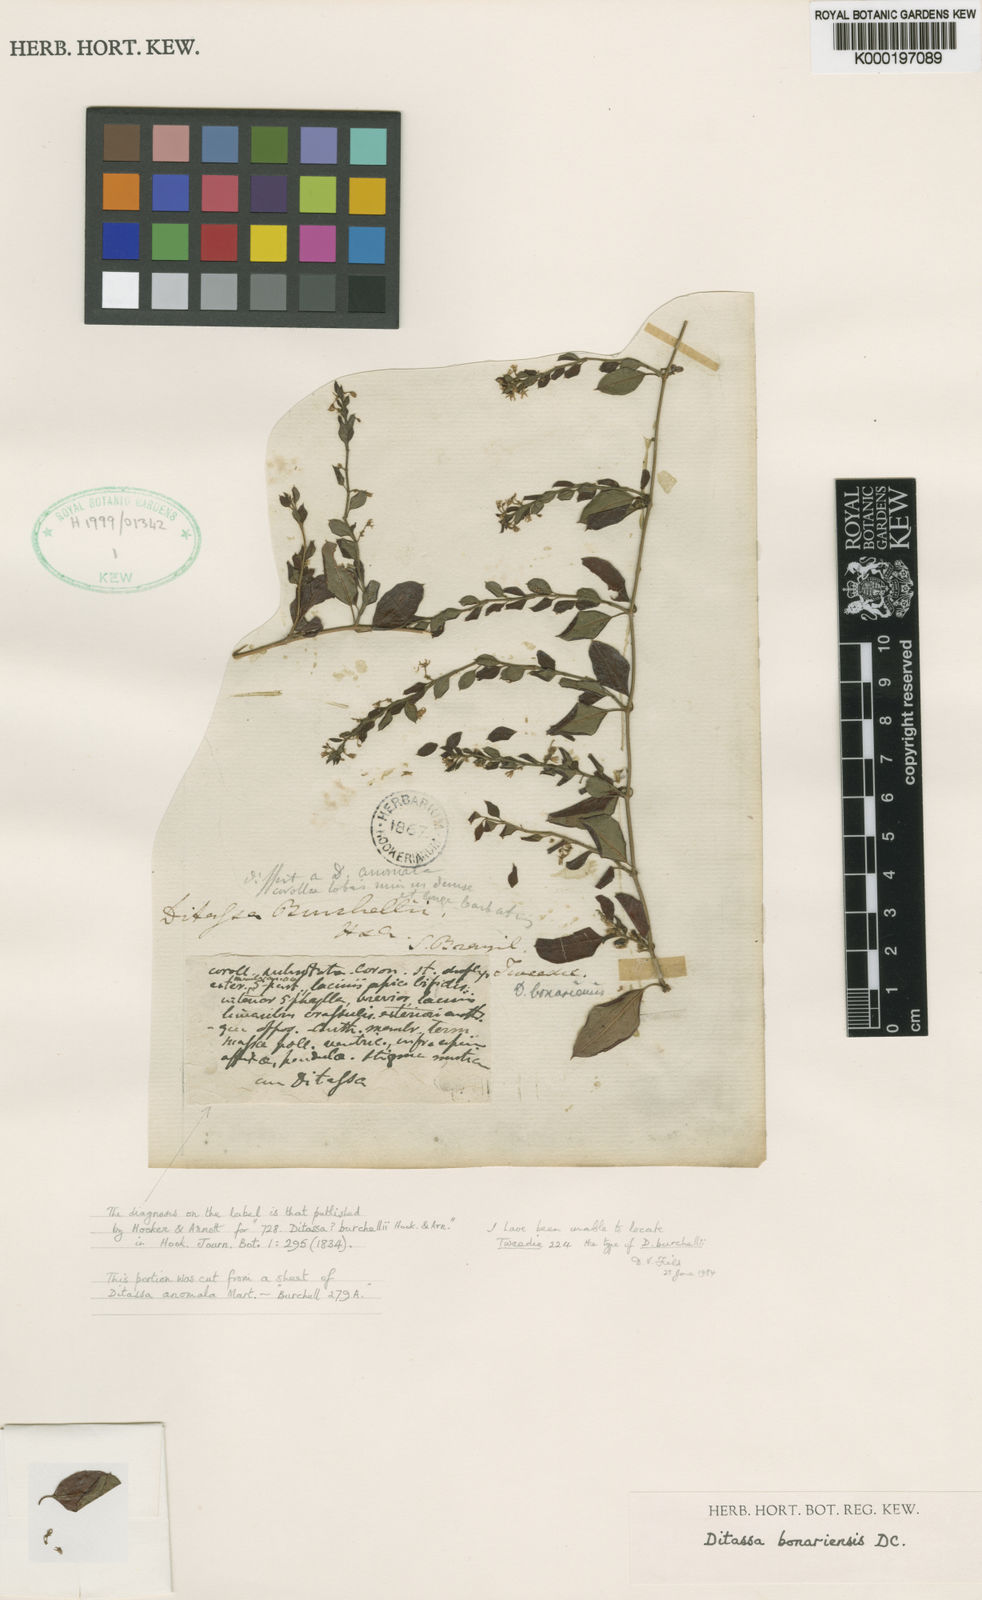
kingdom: Plantae
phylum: Tracheophyta
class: Magnoliopsida
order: Gentianales
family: Apocynaceae
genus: Metastelma
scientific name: Metastelma burchellii
